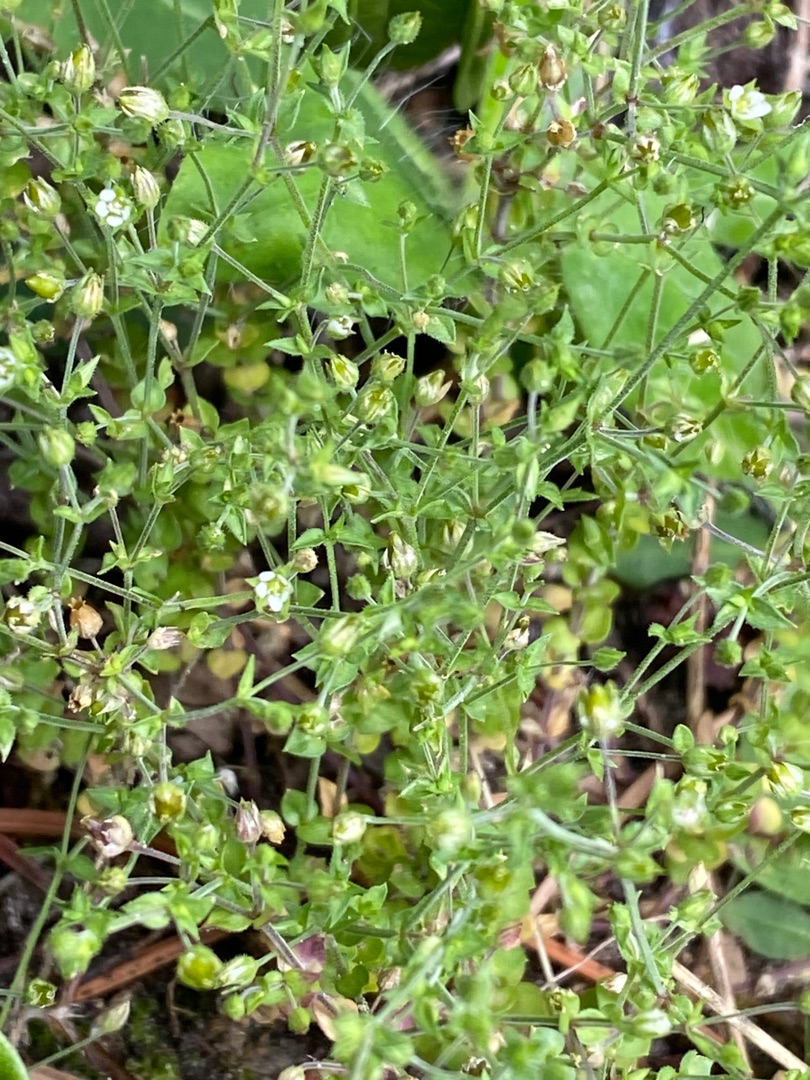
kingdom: Plantae
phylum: Tracheophyta
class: Magnoliopsida
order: Caryophyllales
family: Caryophyllaceae
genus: Arenaria
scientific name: Arenaria serpyllifolia
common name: Almindelig markarve
